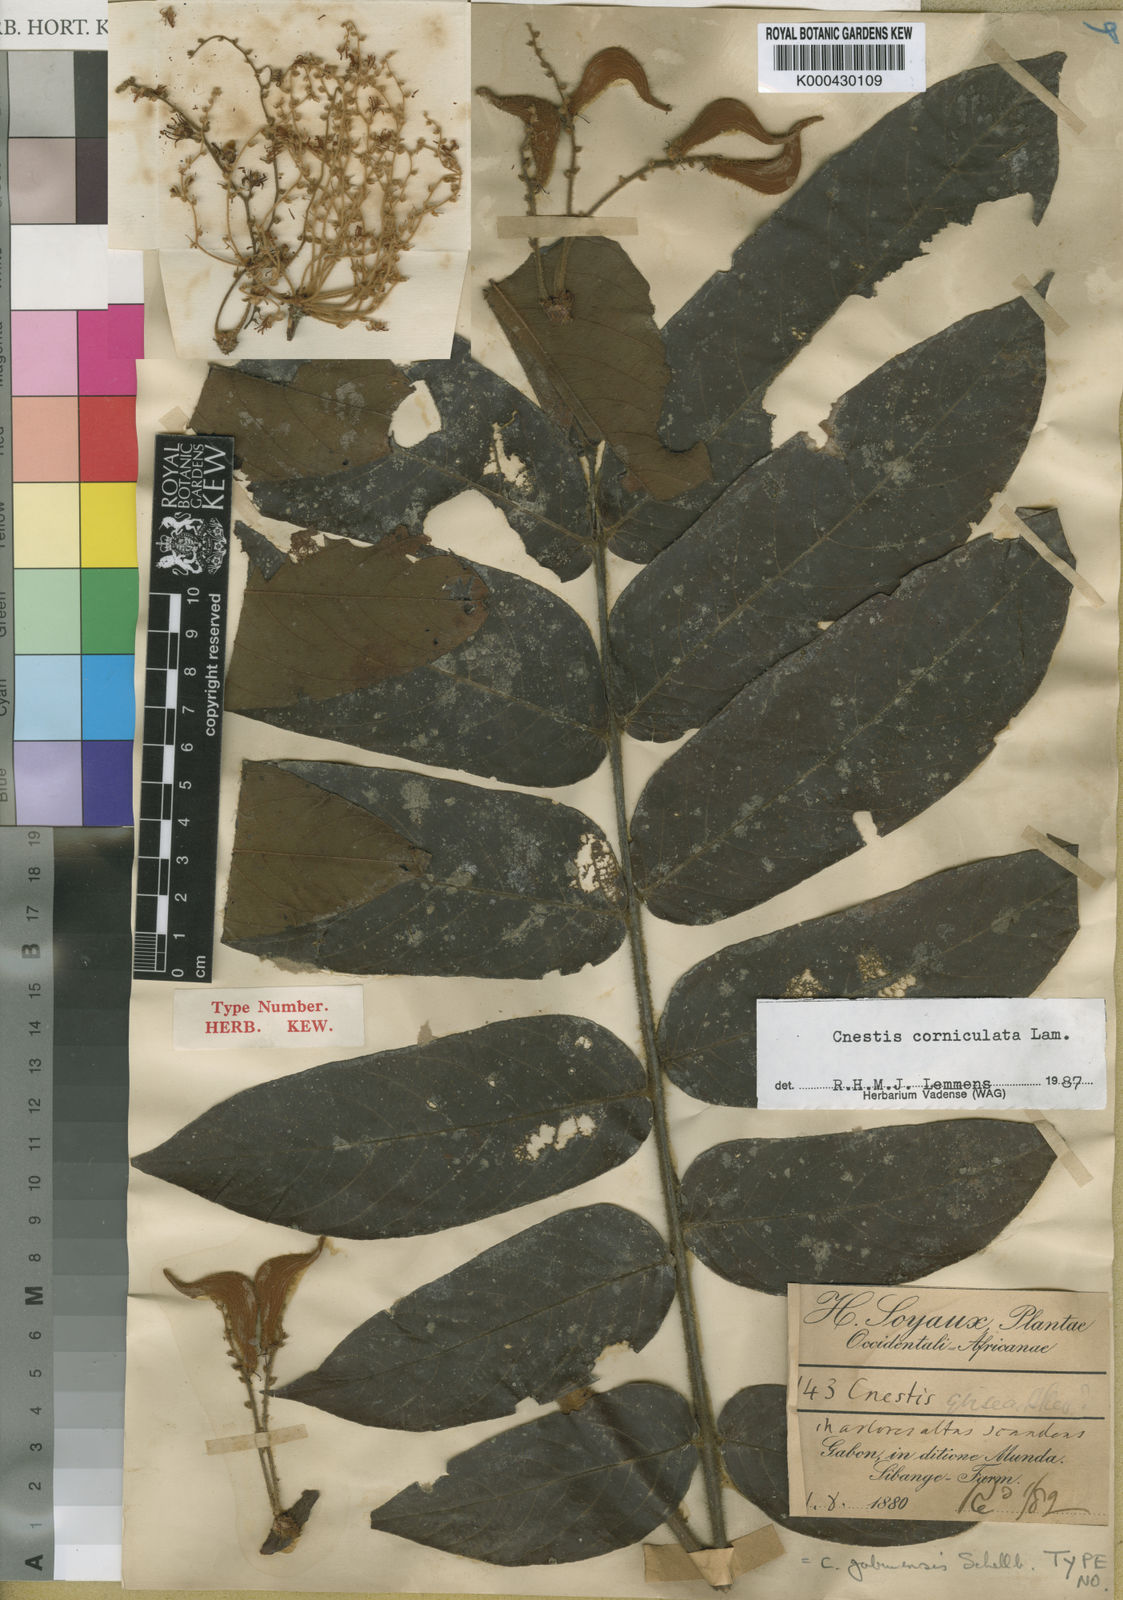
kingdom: Plantae
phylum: Tracheophyta
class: Magnoliopsida
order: Oxalidales
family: Connaraceae
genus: Cnestis
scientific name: Cnestis corniculata
